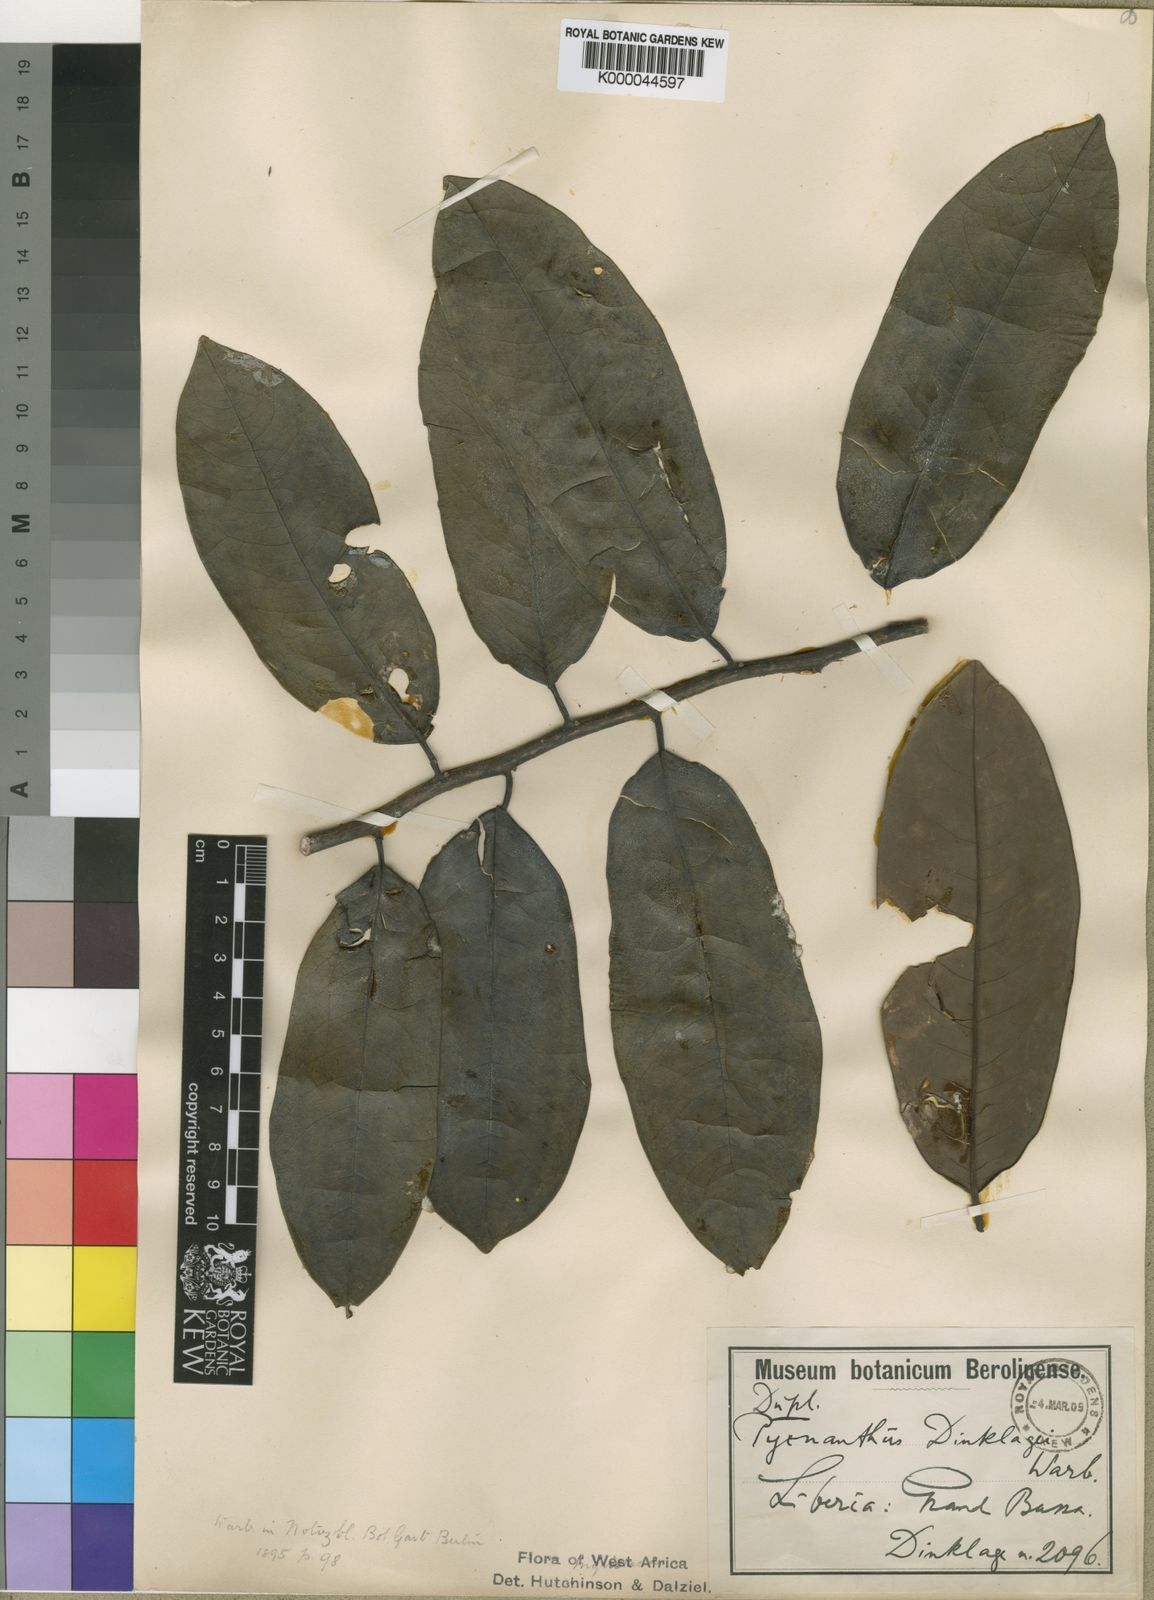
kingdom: Plantae
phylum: Tracheophyta
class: Magnoliopsida
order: Magnoliales
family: Myristicaceae
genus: Pycnanthus
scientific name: Pycnanthus dinklagei
